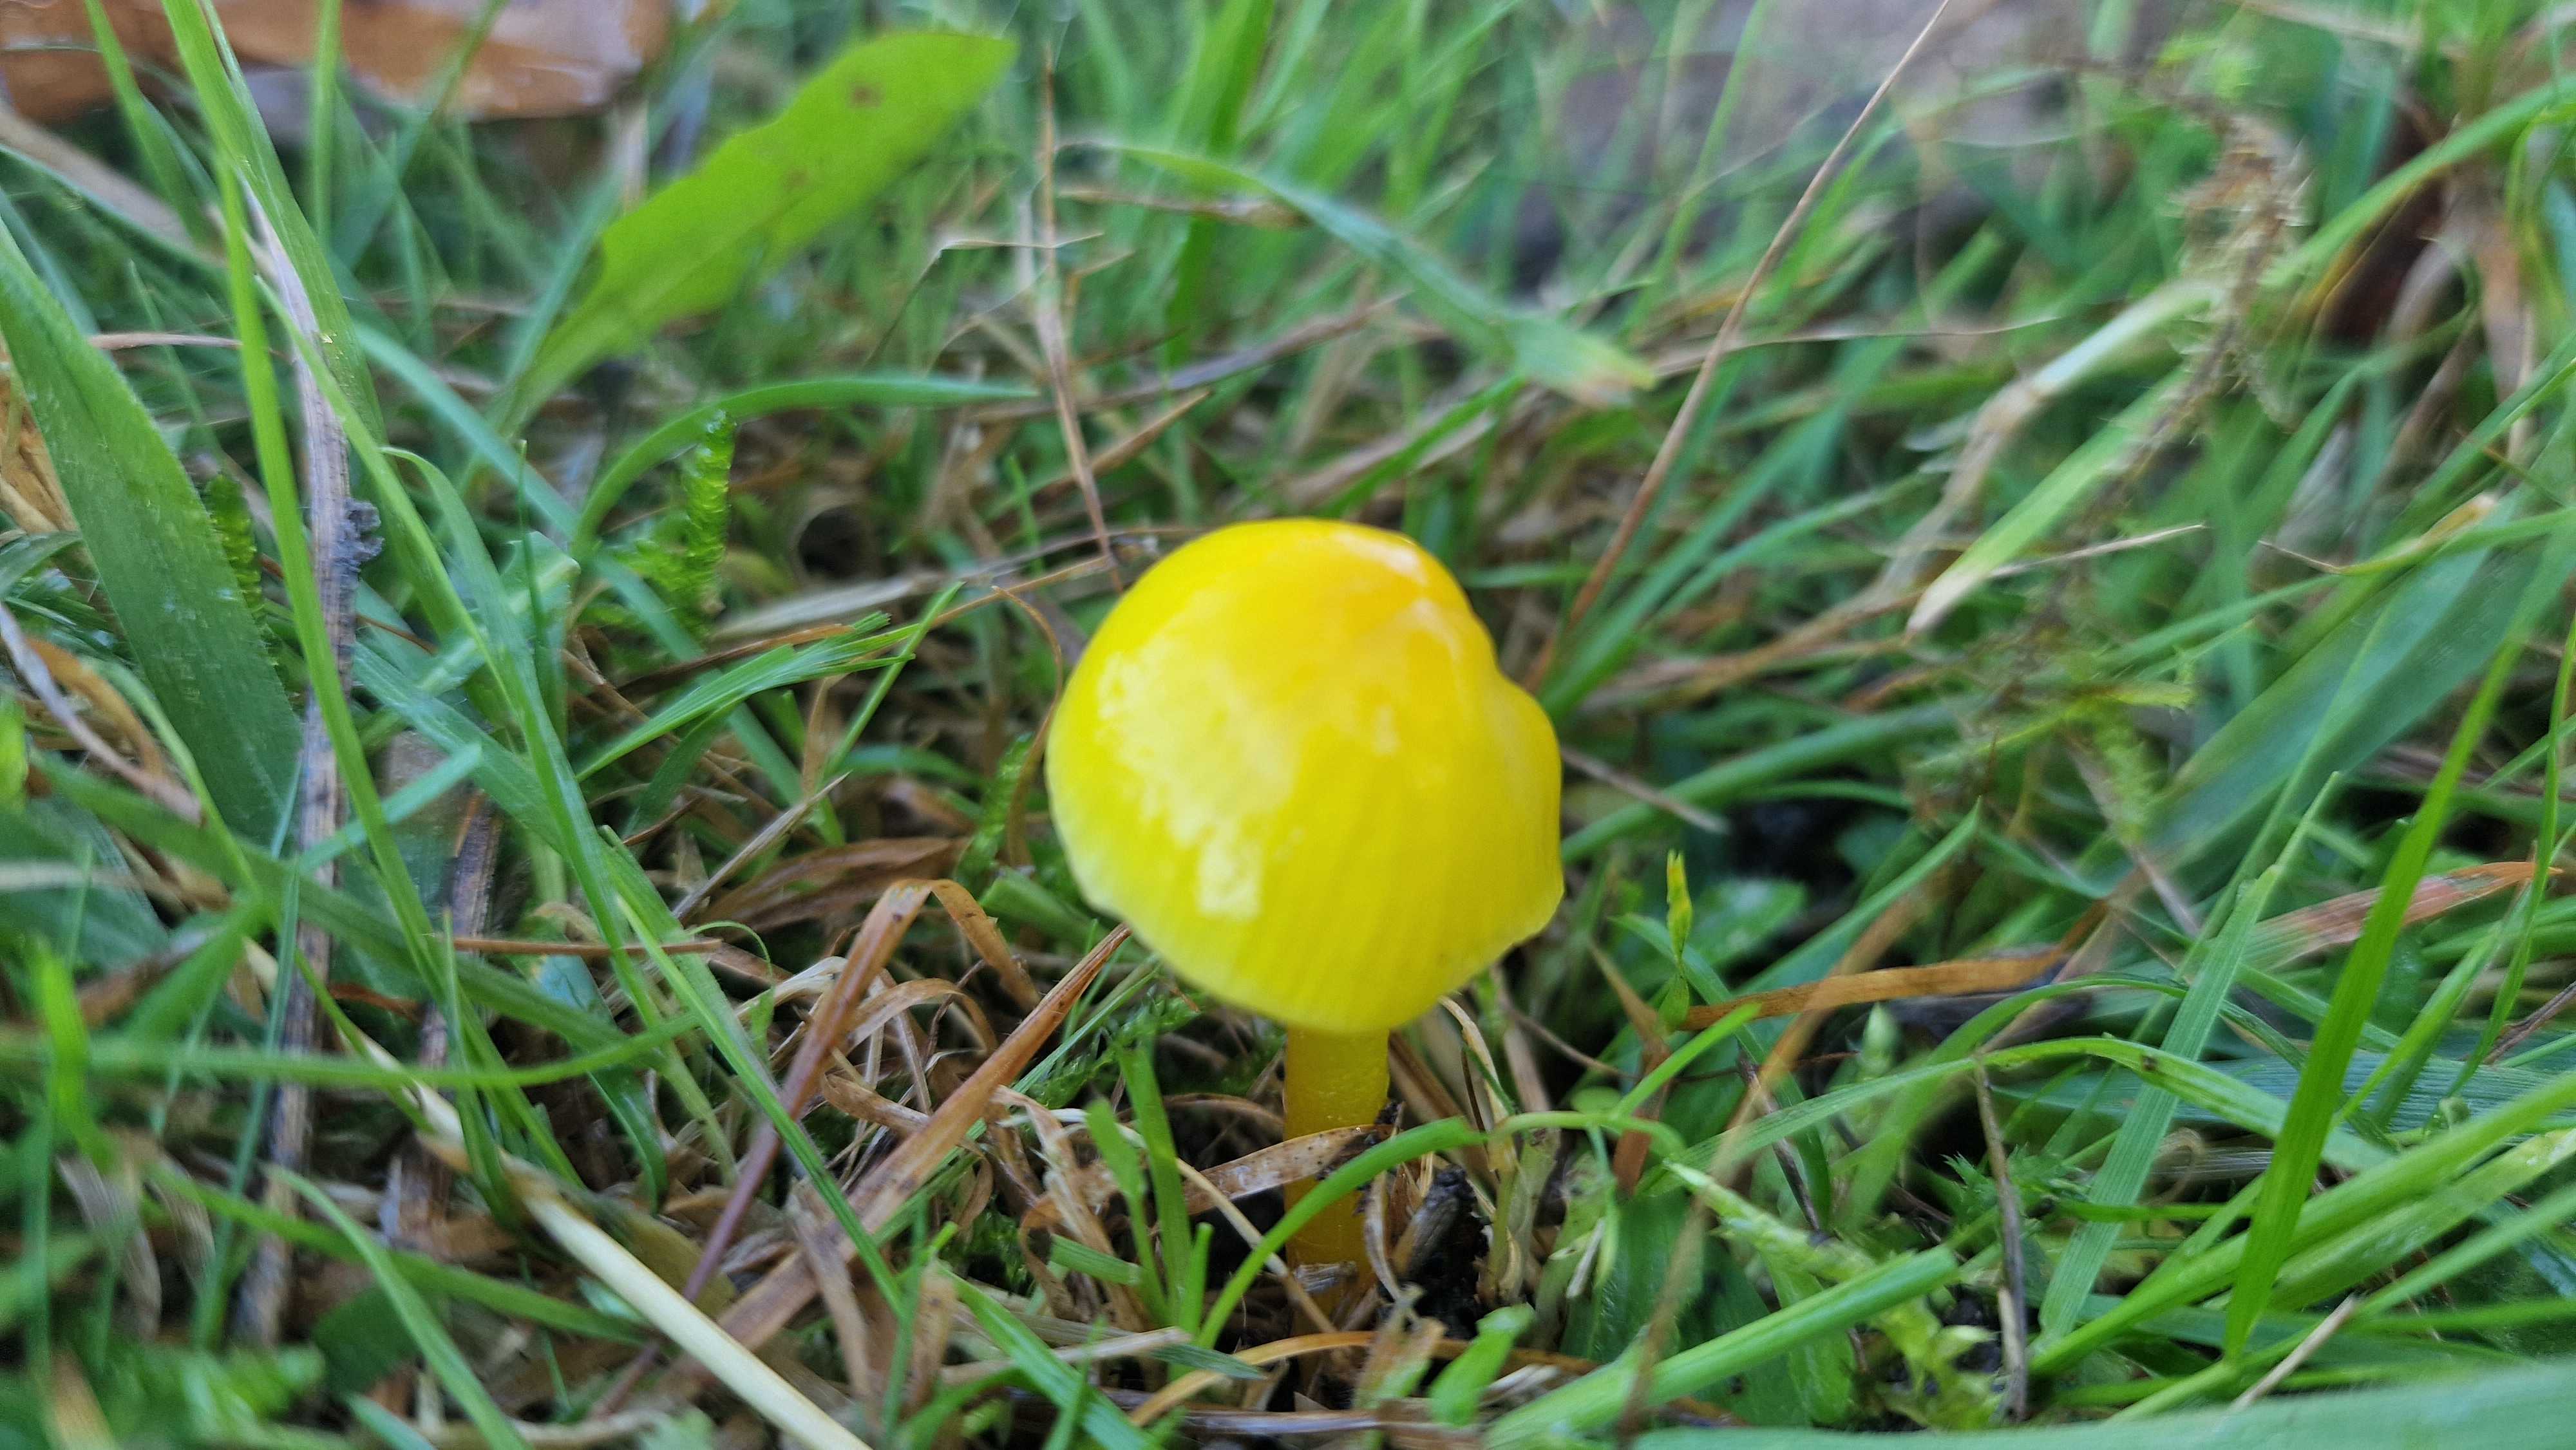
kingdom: Fungi
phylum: Basidiomycota
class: Agaricomycetes
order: Agaricales
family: Hygrophoraceae
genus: Hygrocybe
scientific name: Hygrocybe glutinipes
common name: slimstokket vokshat
